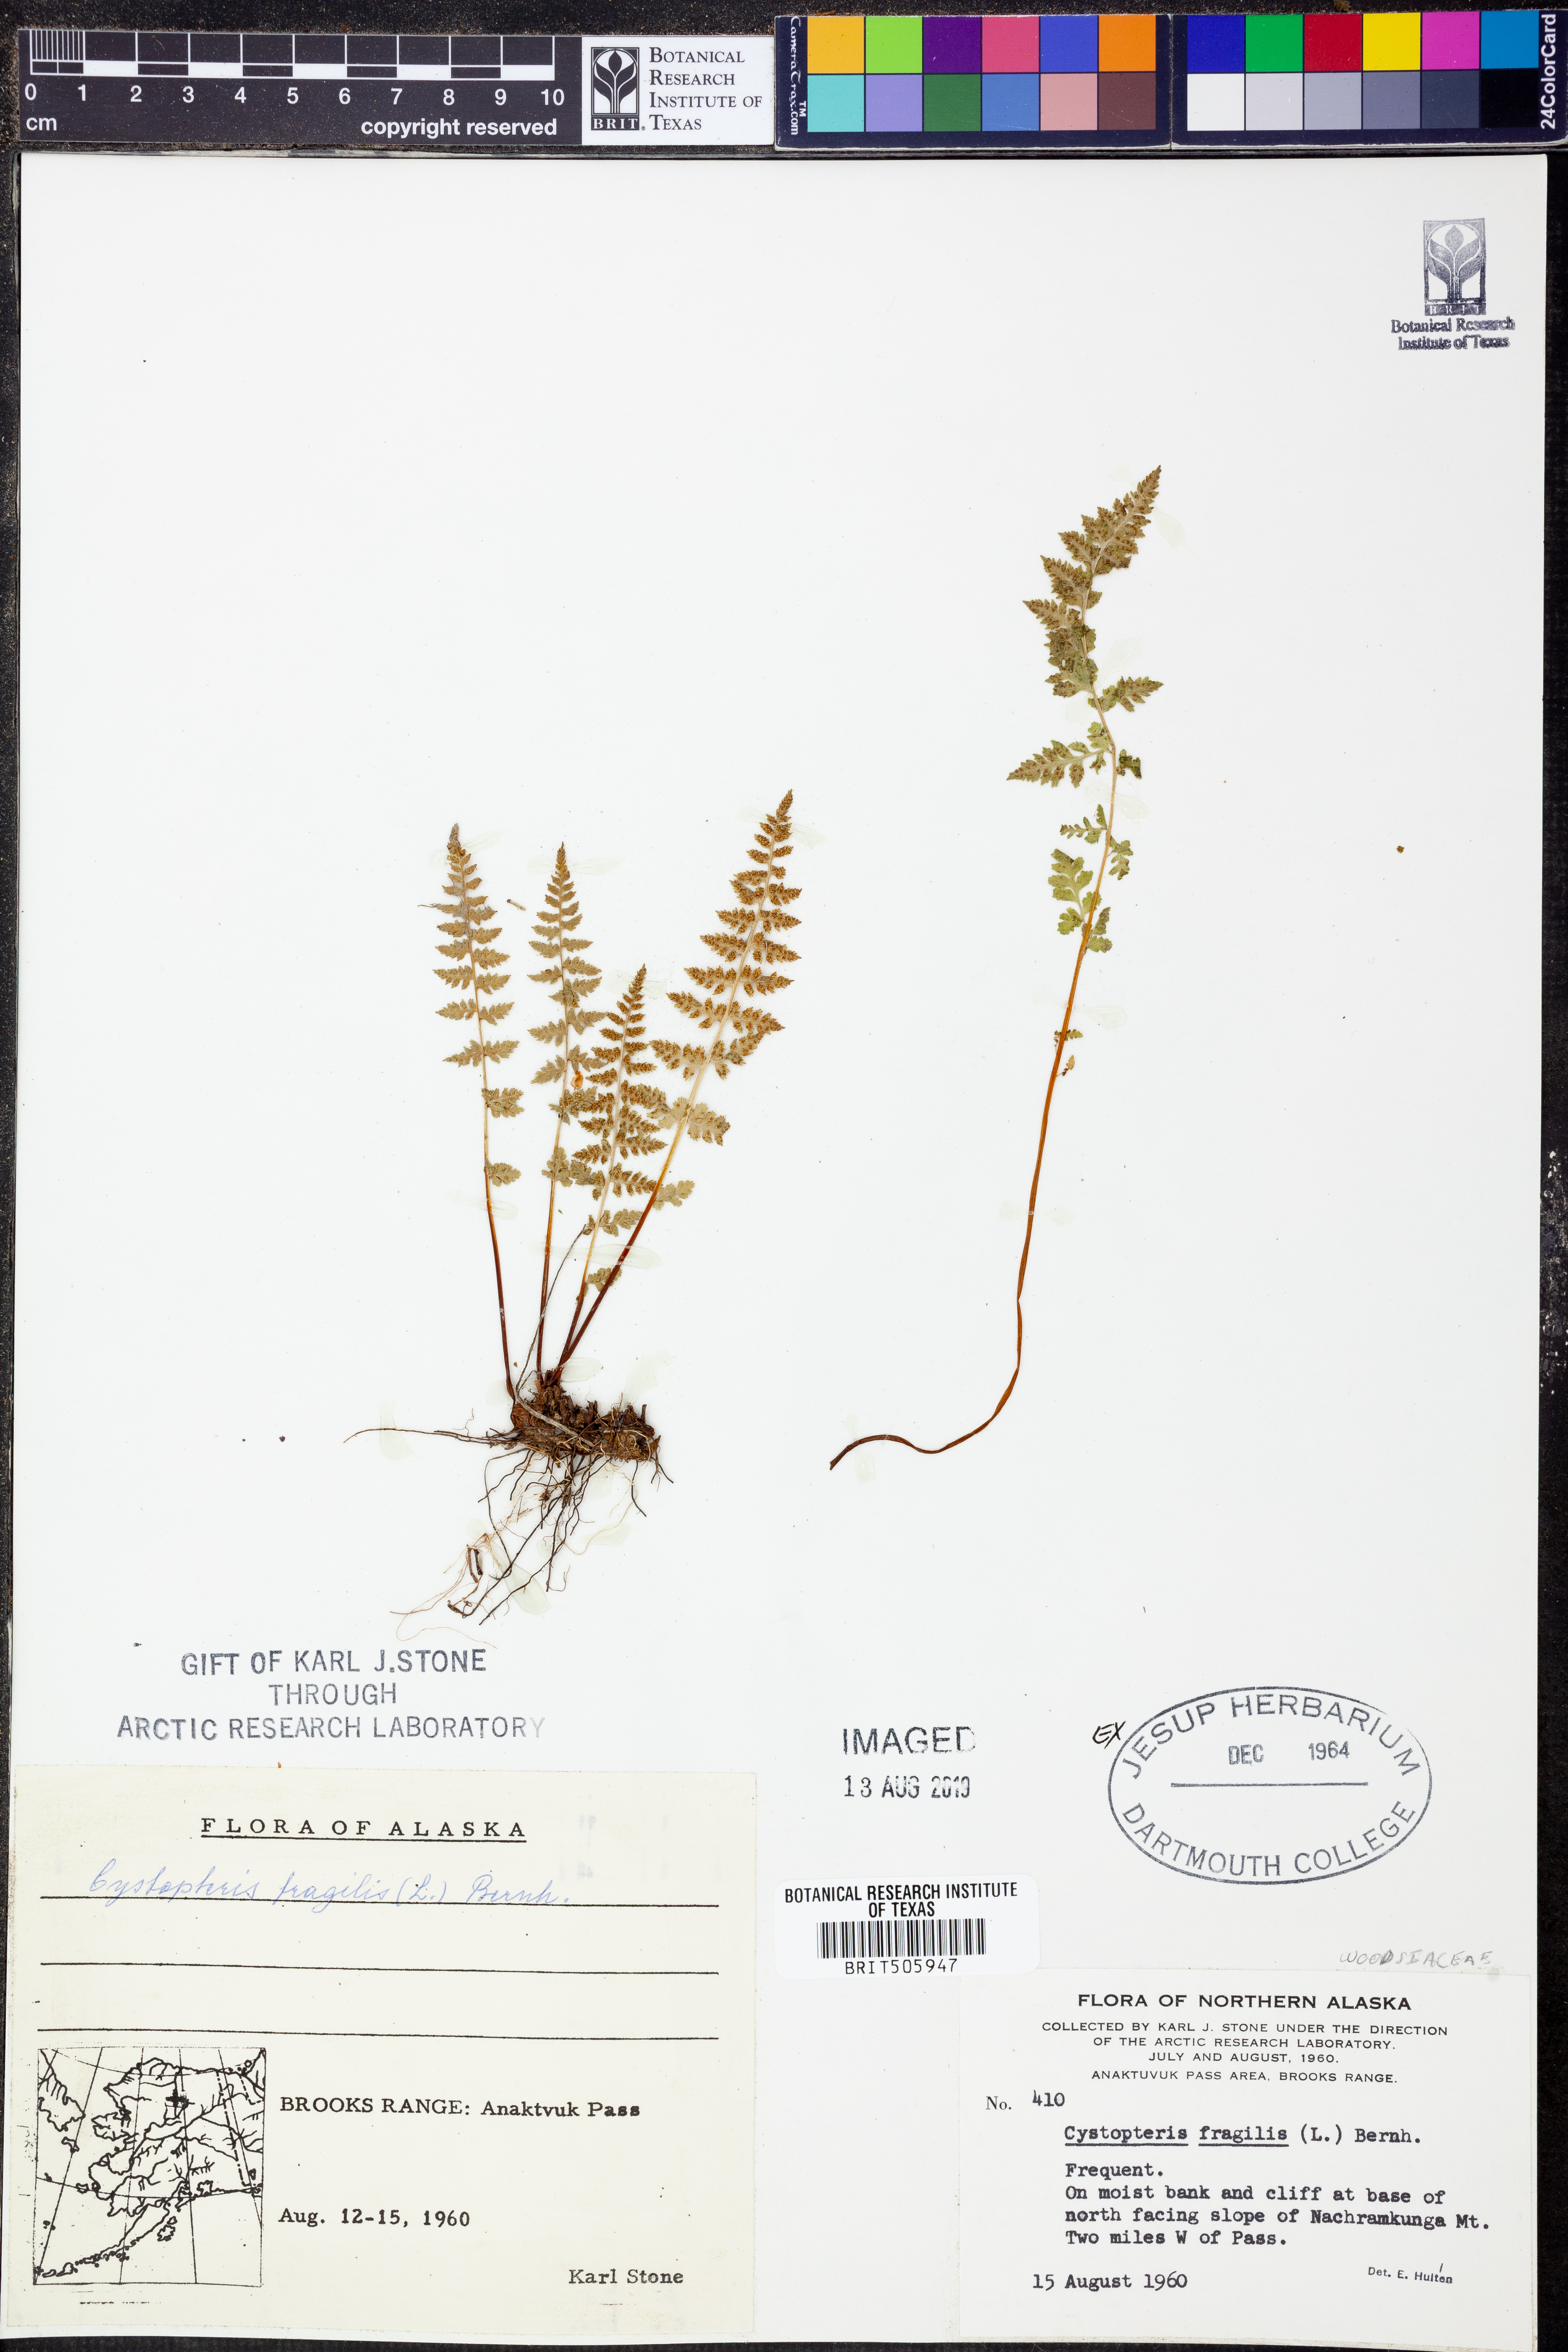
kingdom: Plantae
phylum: Tracheophyta
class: Polypodiopsida
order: Polypodiales
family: Cystopteridaceae
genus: Cystopteris
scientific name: Cystopteris fragilis
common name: Brittle bladder fern
